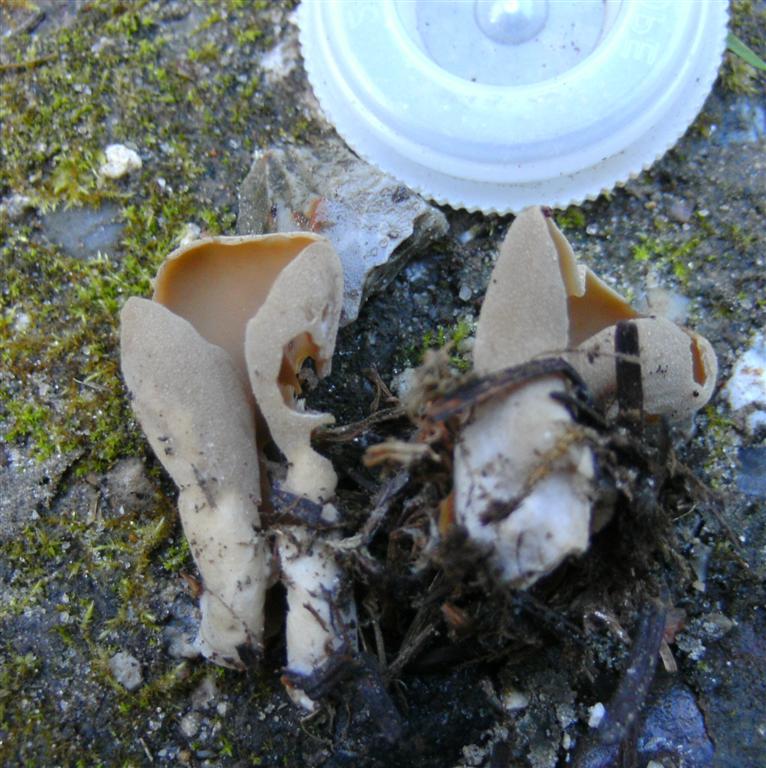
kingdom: Fungi
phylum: Ascomycota
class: Pezizomycetes
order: Pezizales
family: Otideaceae
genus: Otidea
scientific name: Otidea leporina
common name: hare-ørebæger
